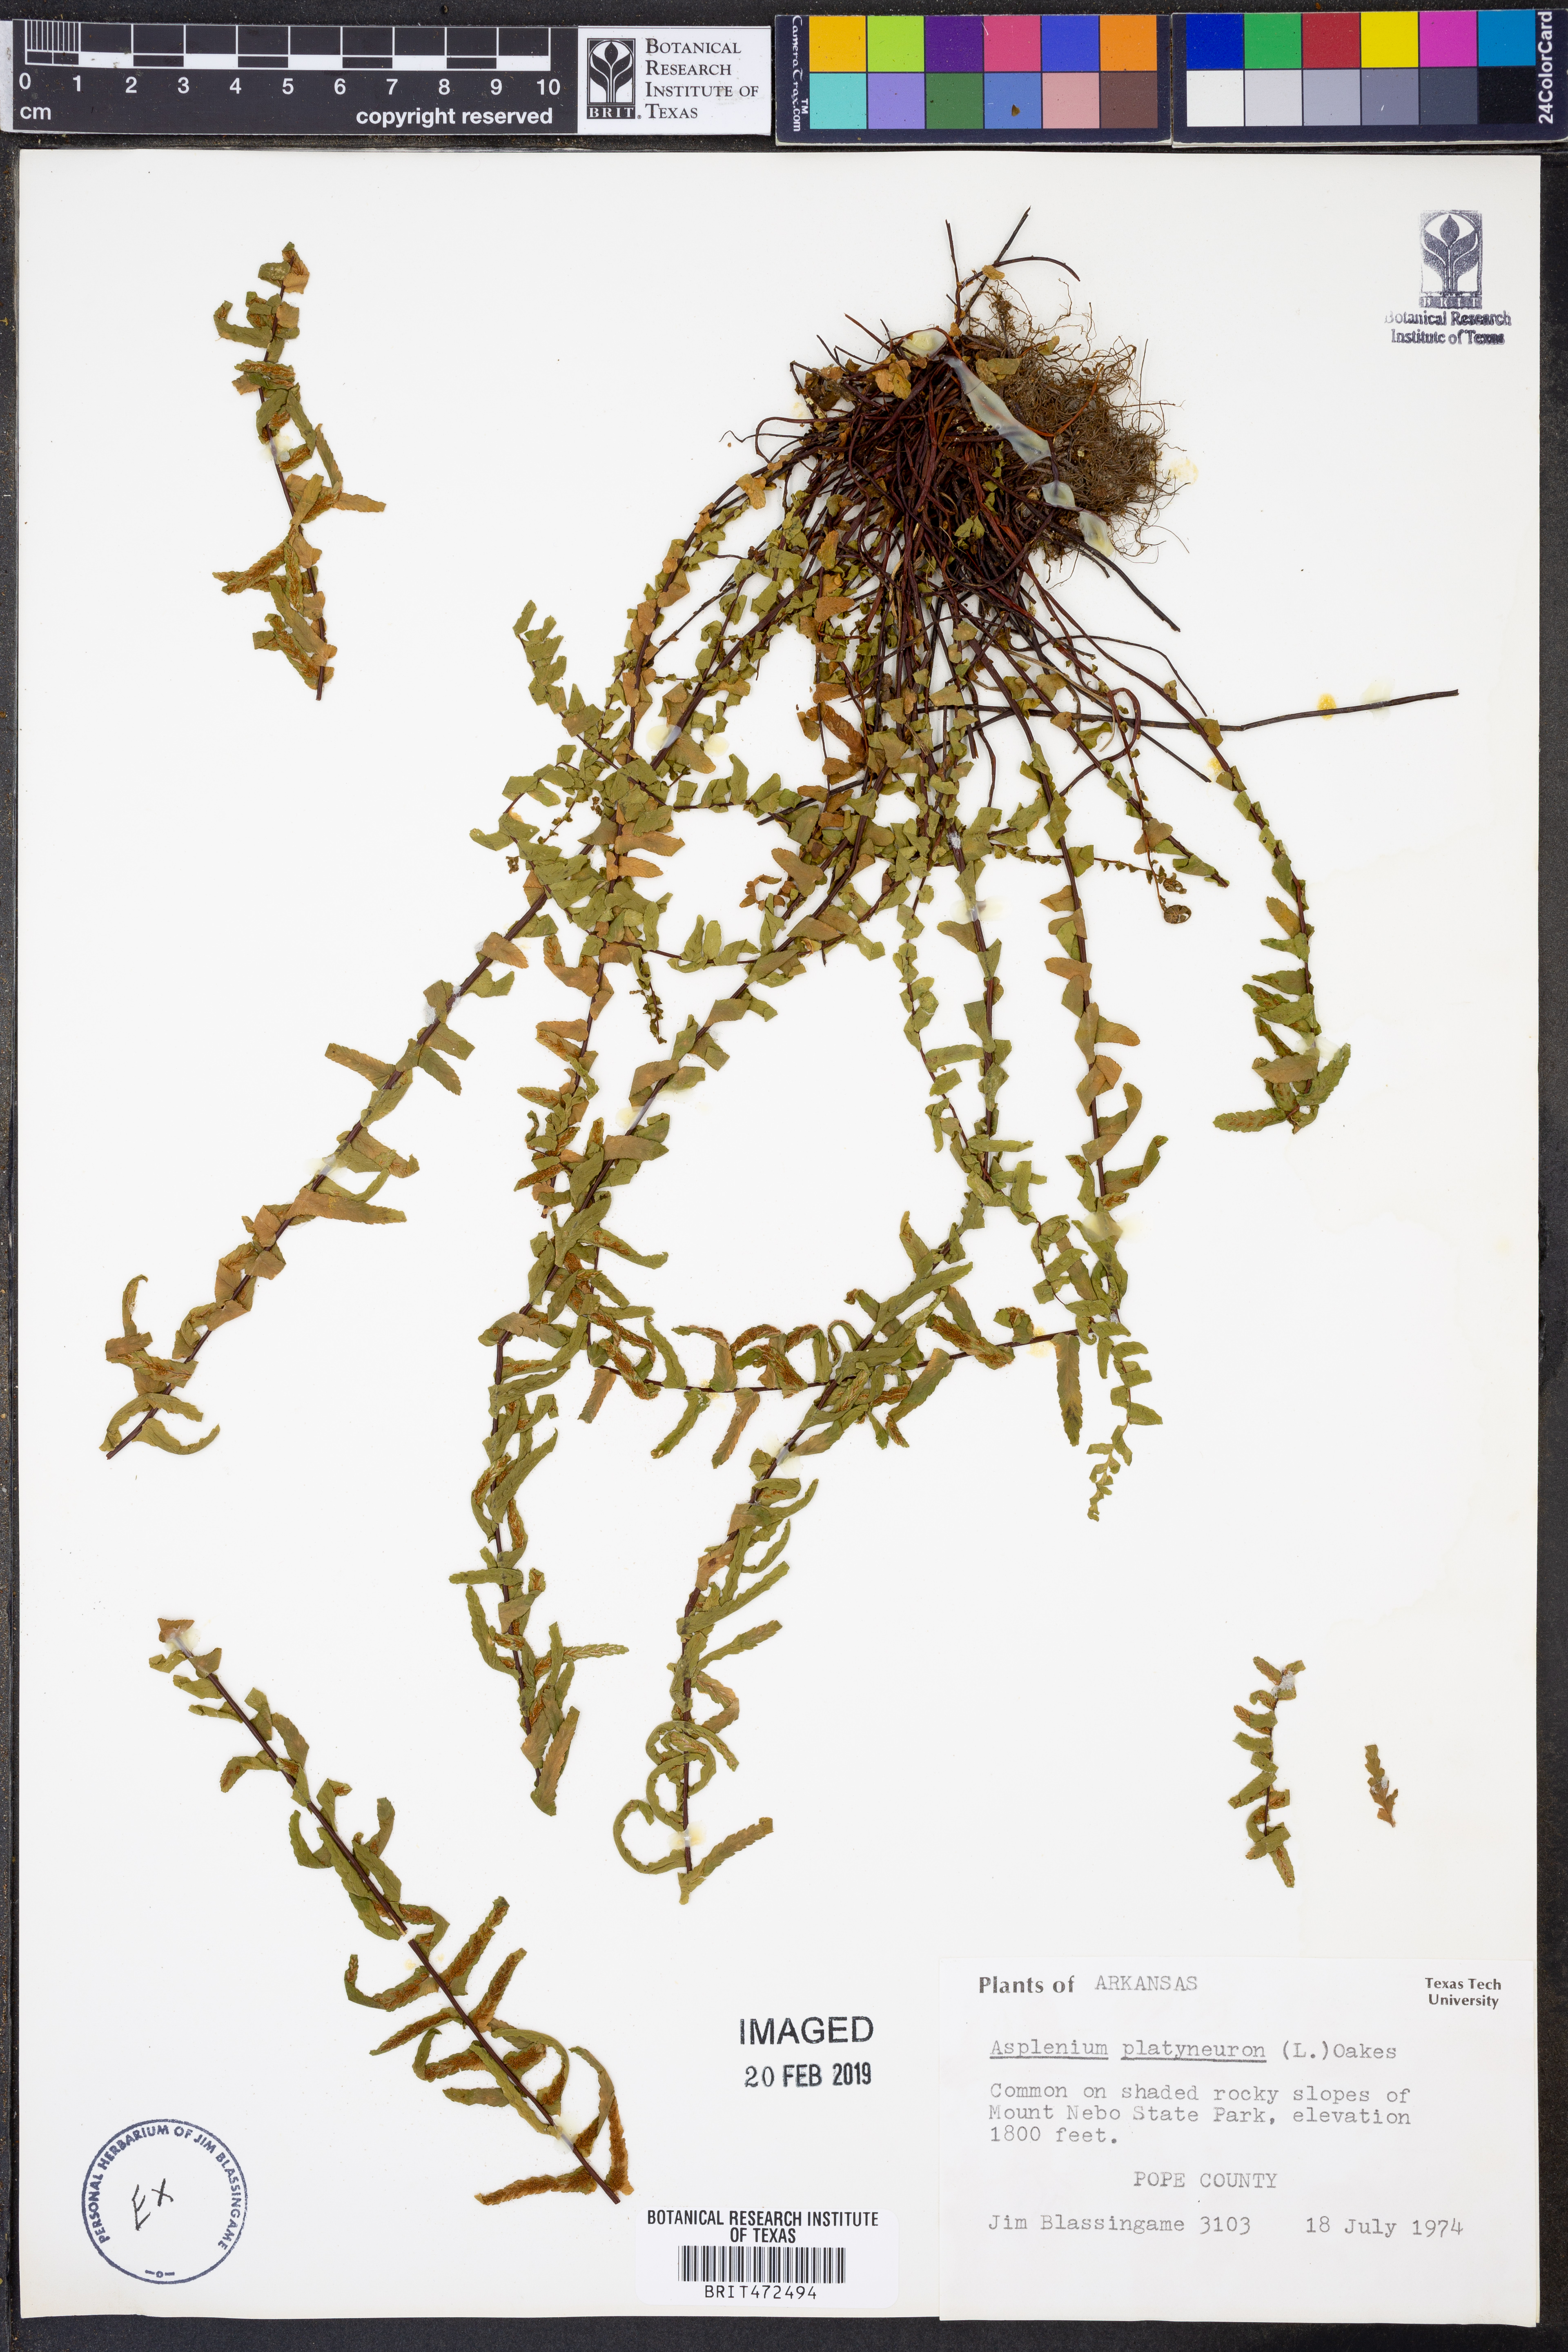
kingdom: Plantae
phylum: Tracheophyta
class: Polypodiopsida
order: Polypodiales
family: Aspleniaceae
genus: Asplenium
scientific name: Asplenium platyneuron
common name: Ebony spleenwort
